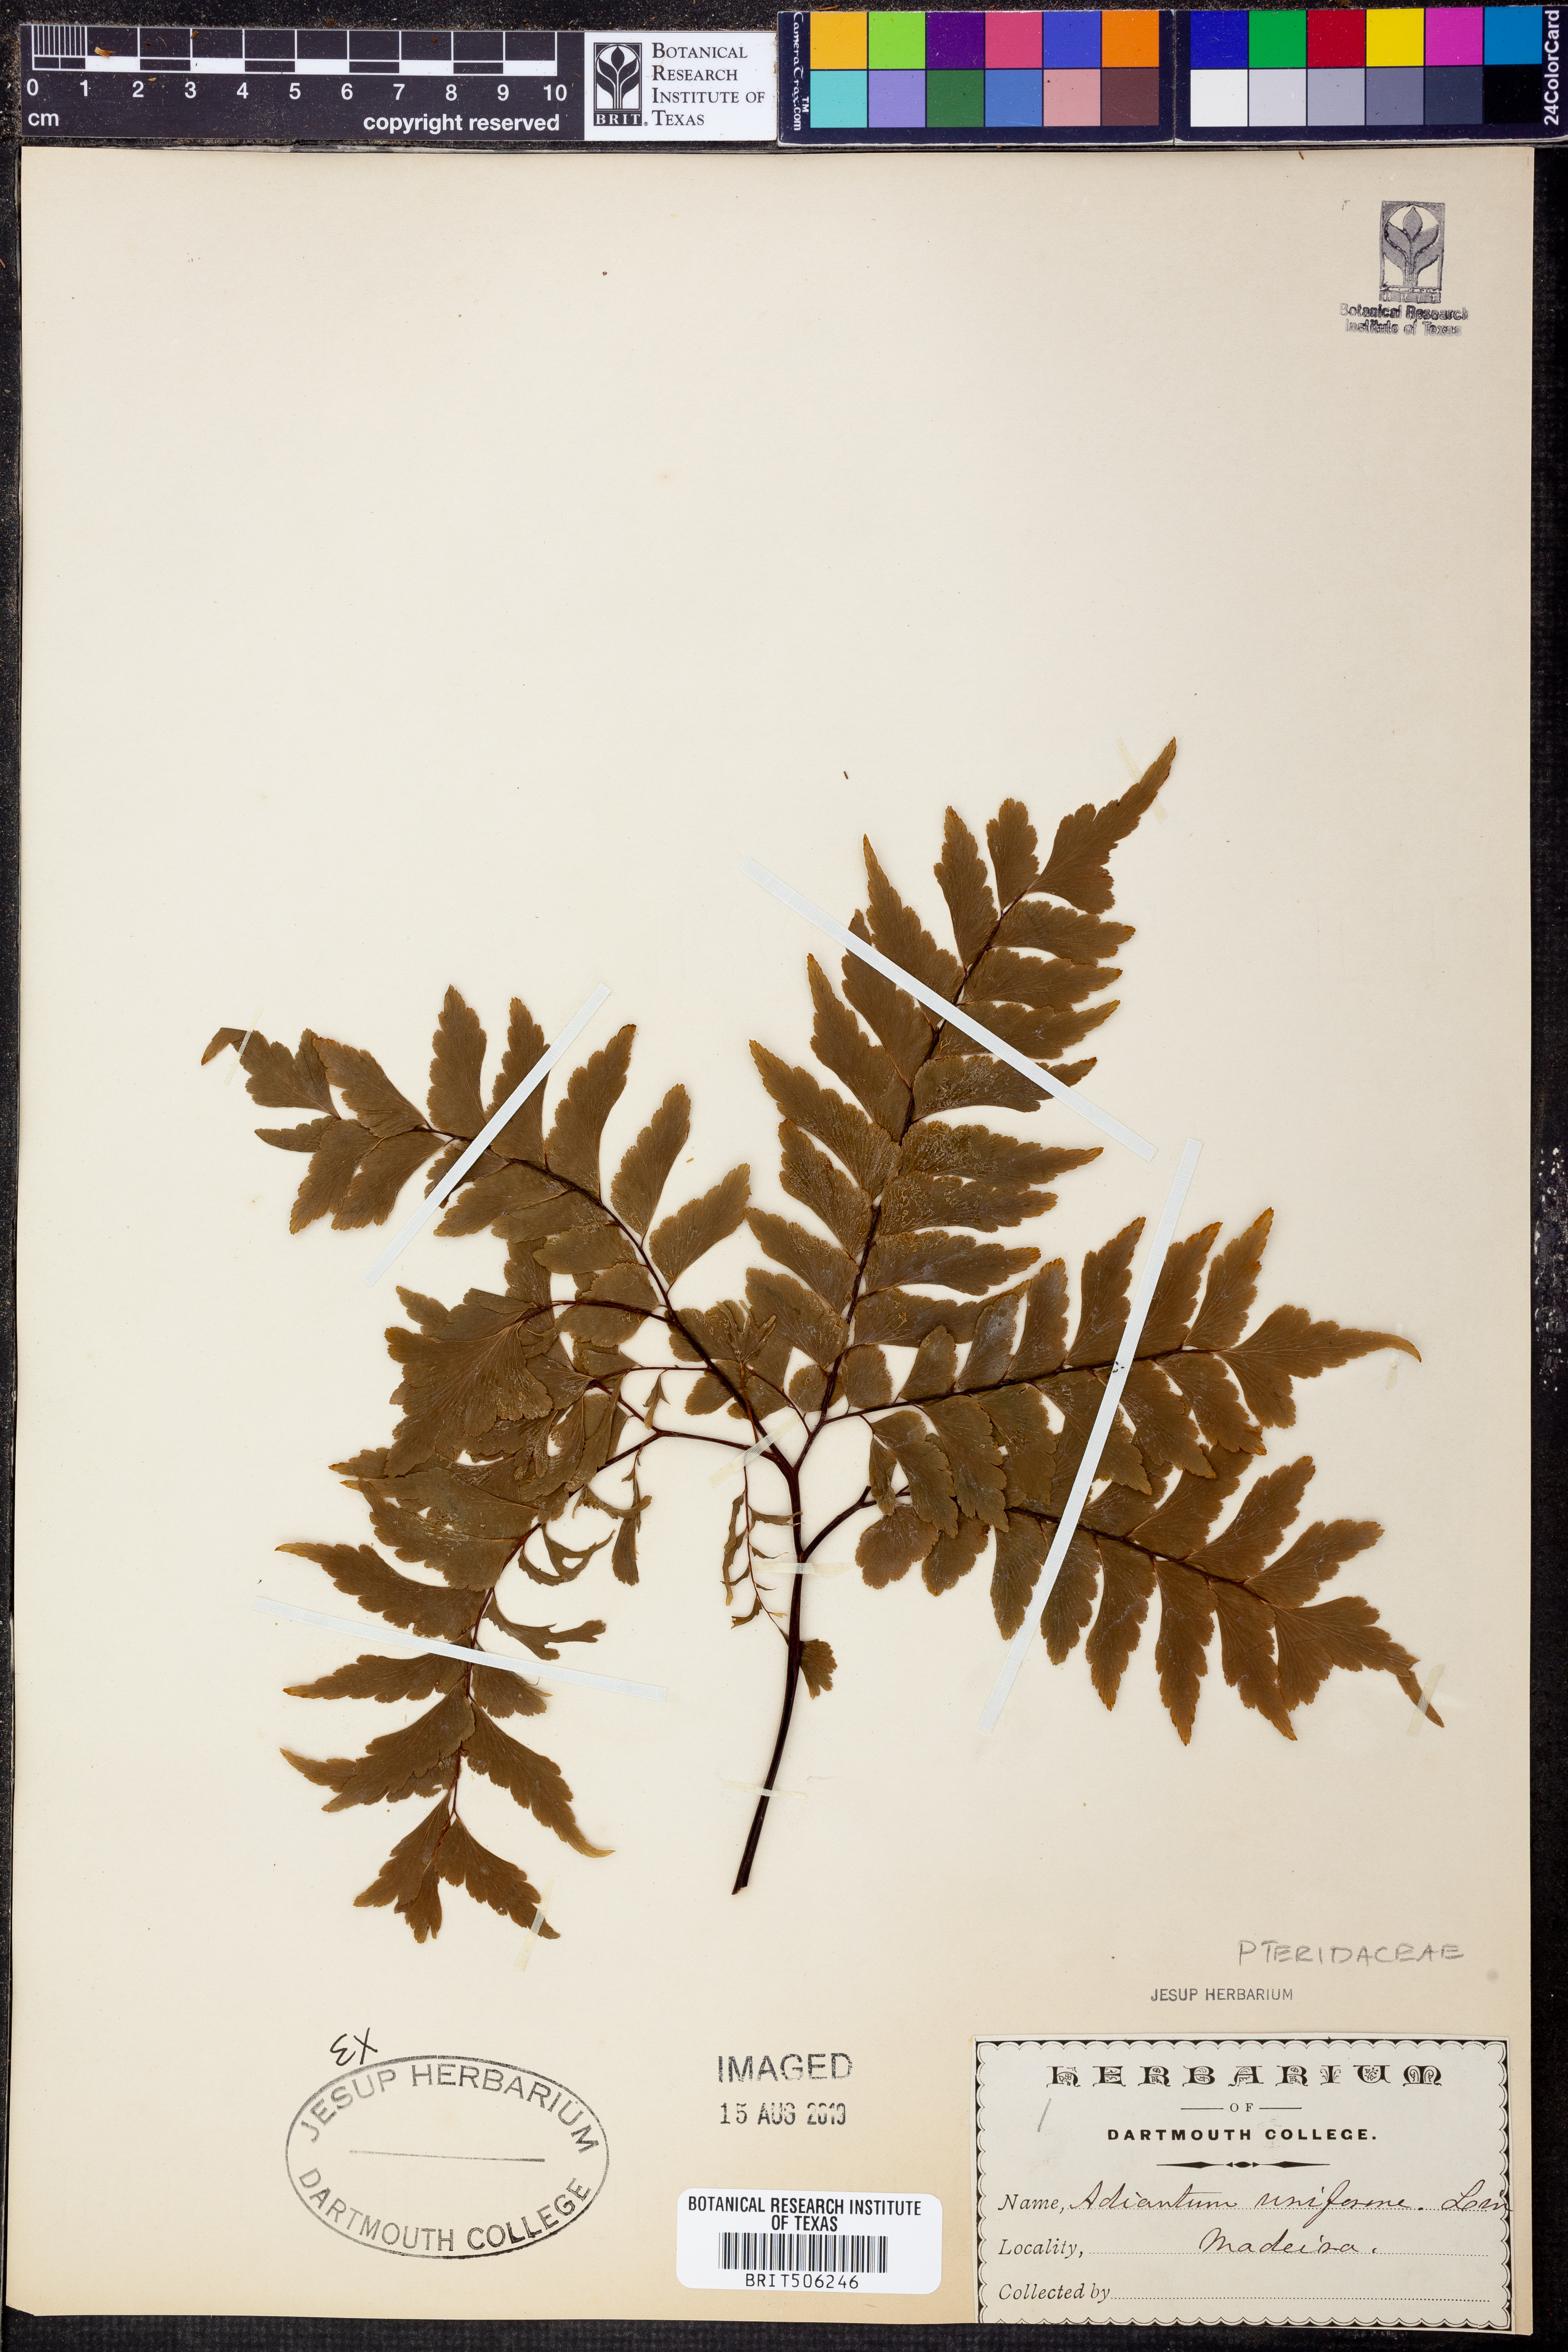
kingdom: Plantae
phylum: Tracheophyta
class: Polypodiopsida
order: Polypodiales
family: Pteridaceae
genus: Adiantum
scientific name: Adiantum reniforme
